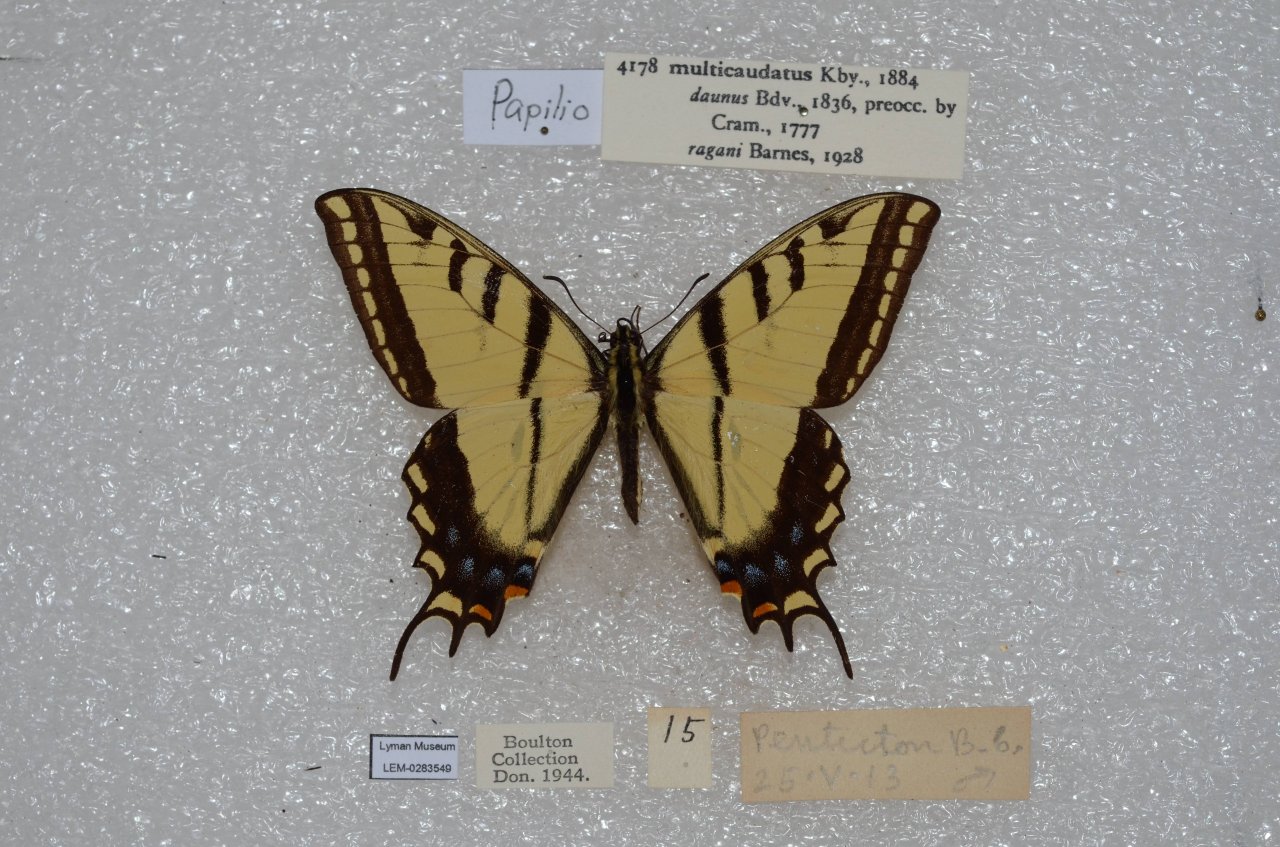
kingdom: Animalia
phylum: Arthropoda
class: Insecta
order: Lepidoptera
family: Papilionidae
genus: Papilio
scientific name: Papilio multicaudata
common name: Two-tailed Swallowtail
